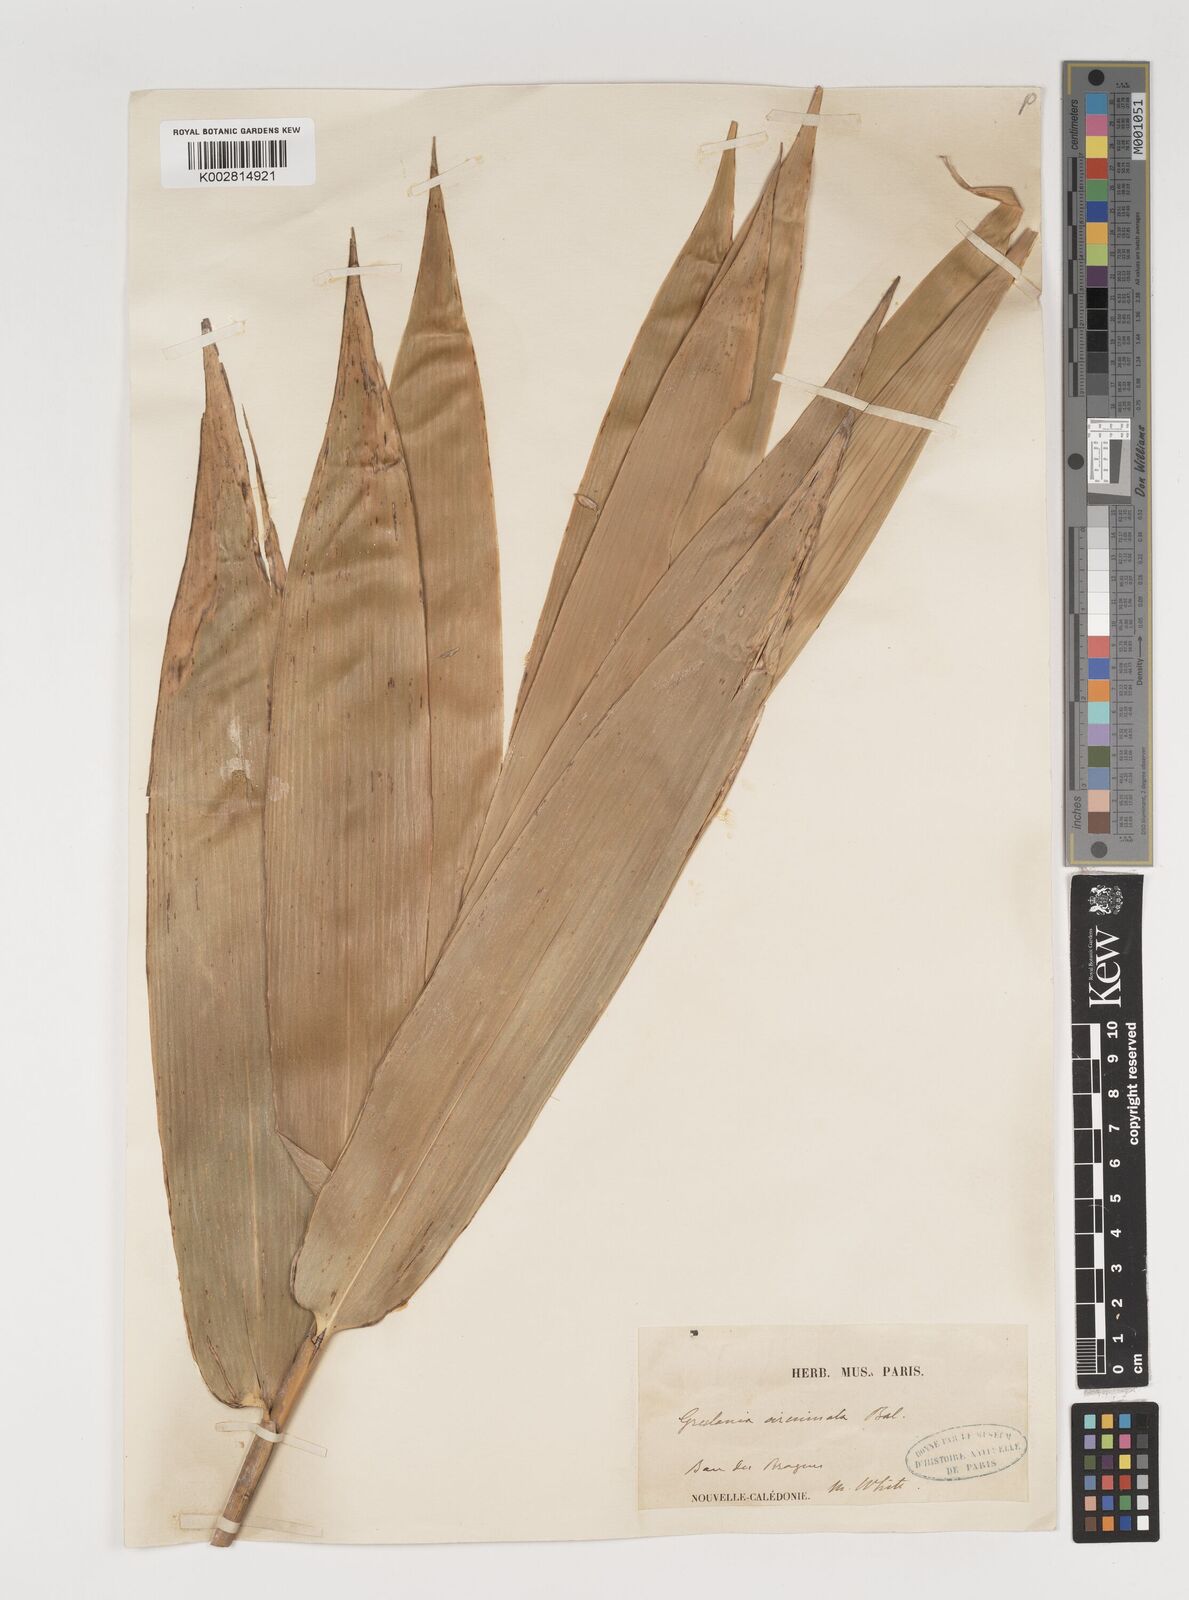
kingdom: Plantae
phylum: Tracheophyta
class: Liliopsida
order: Poales
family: Poaceae
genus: Greslania
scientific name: Greslania circinata
